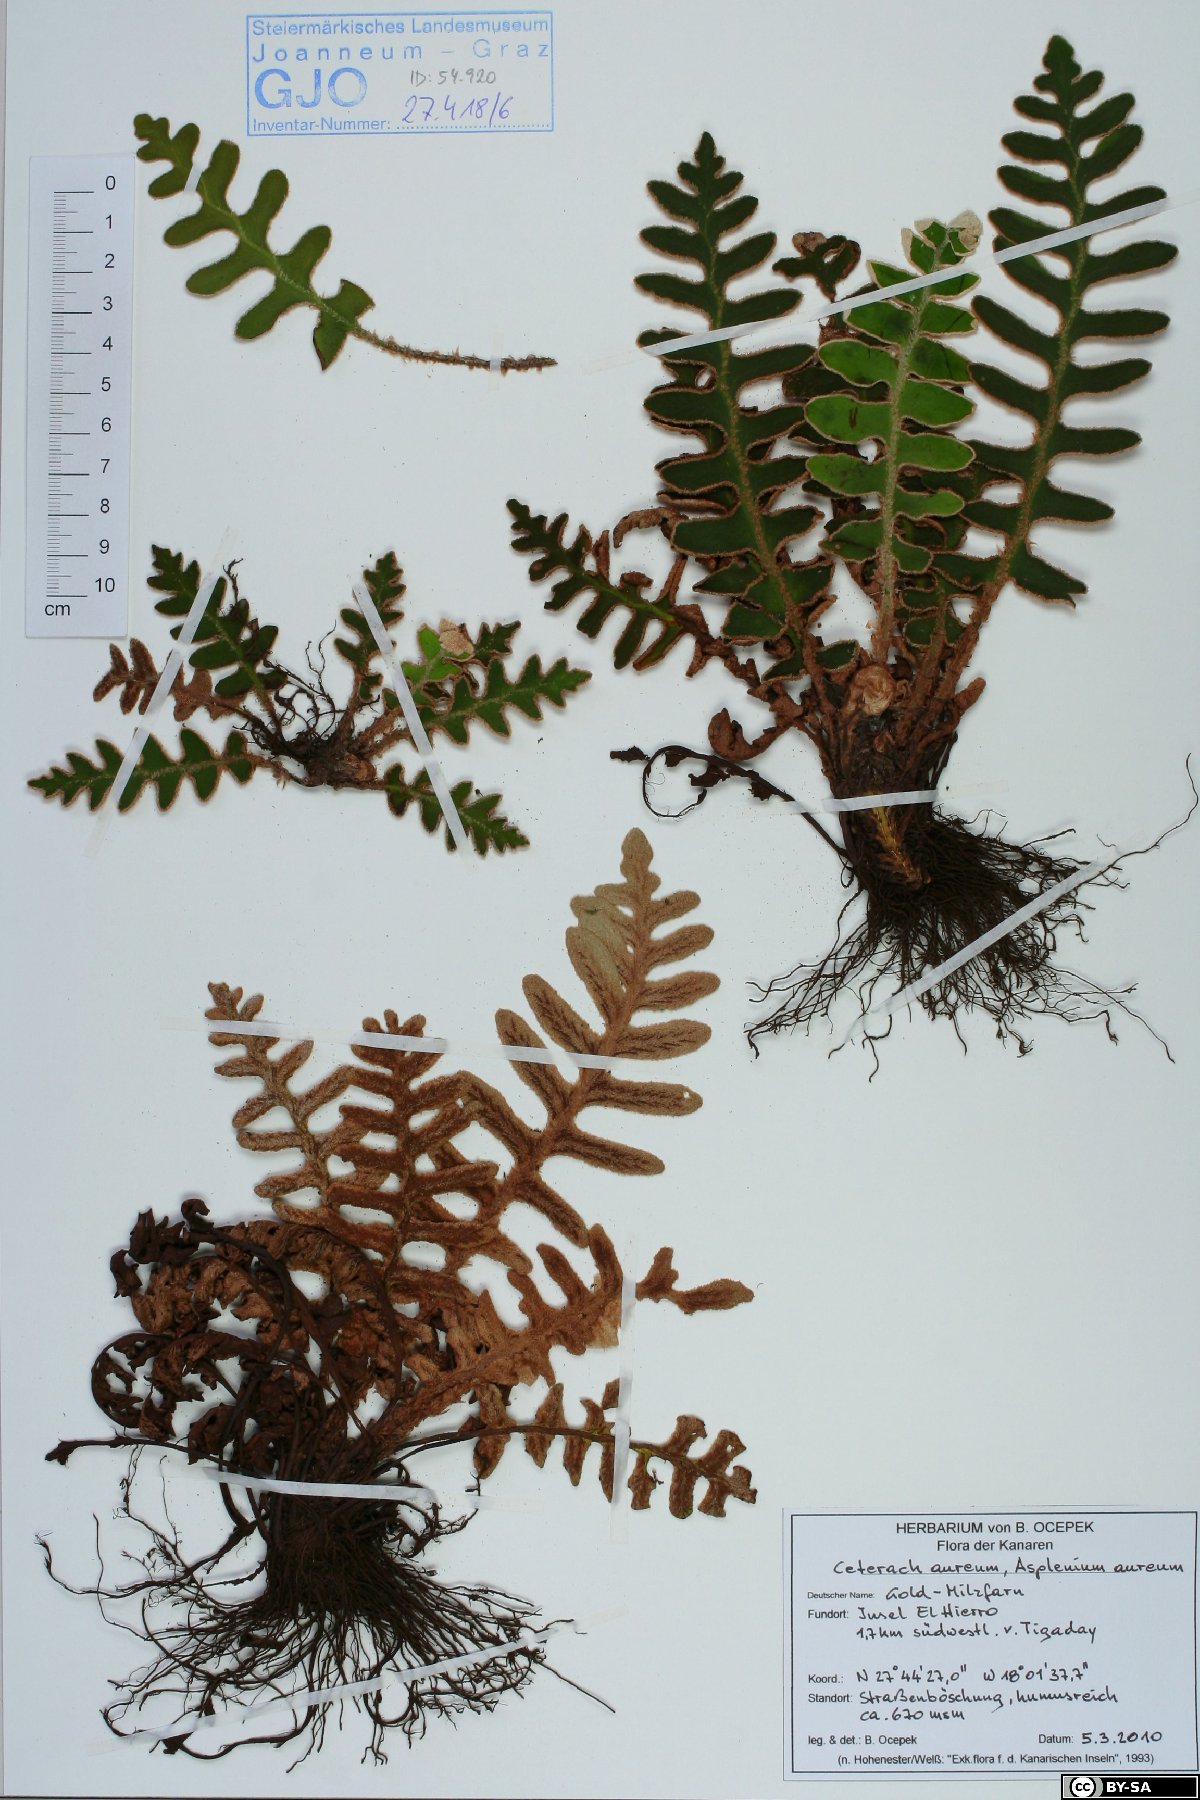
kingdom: Plantae
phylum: Tracheophyta
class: Polypodiopsida
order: Polypodiales
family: Aspleniaceae
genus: Asplenium
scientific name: Asplenium aureum
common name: Golden rustyback fern
